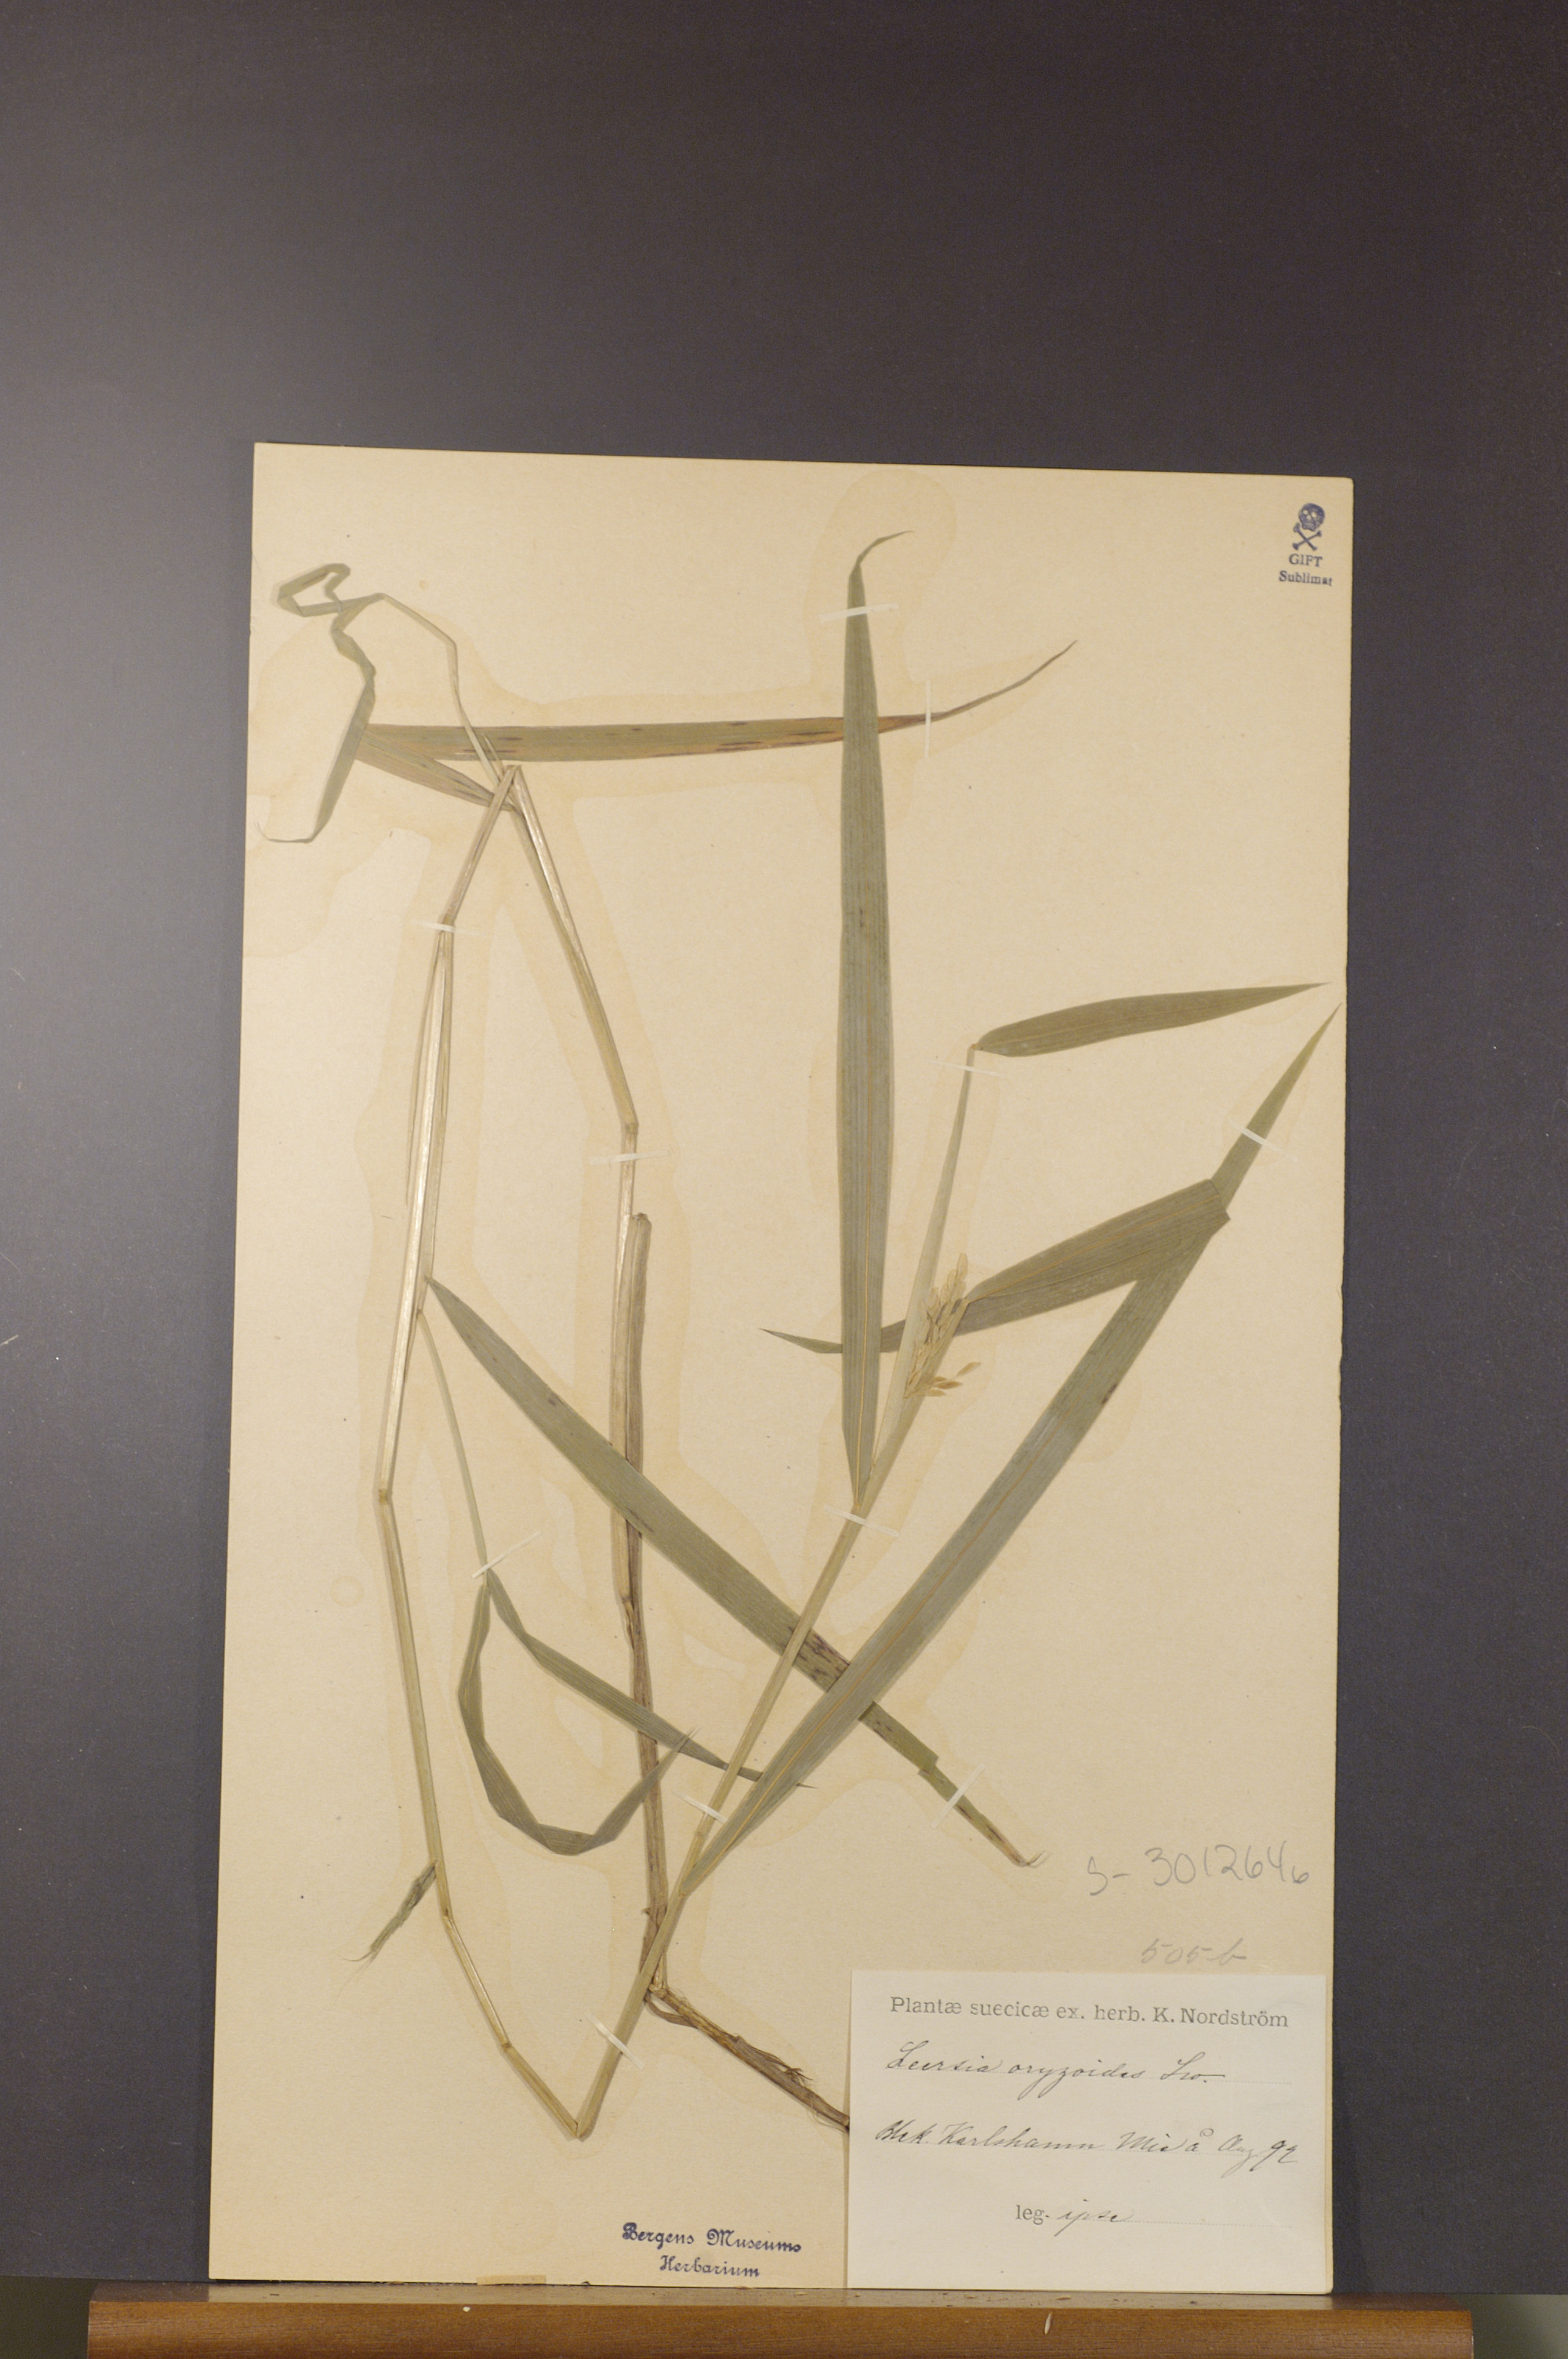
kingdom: Plantae
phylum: Tracheophyta
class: Liliopsida
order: Poales
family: Poaceae
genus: Leersia
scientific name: Leersia oryzoides
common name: Cut-grass
